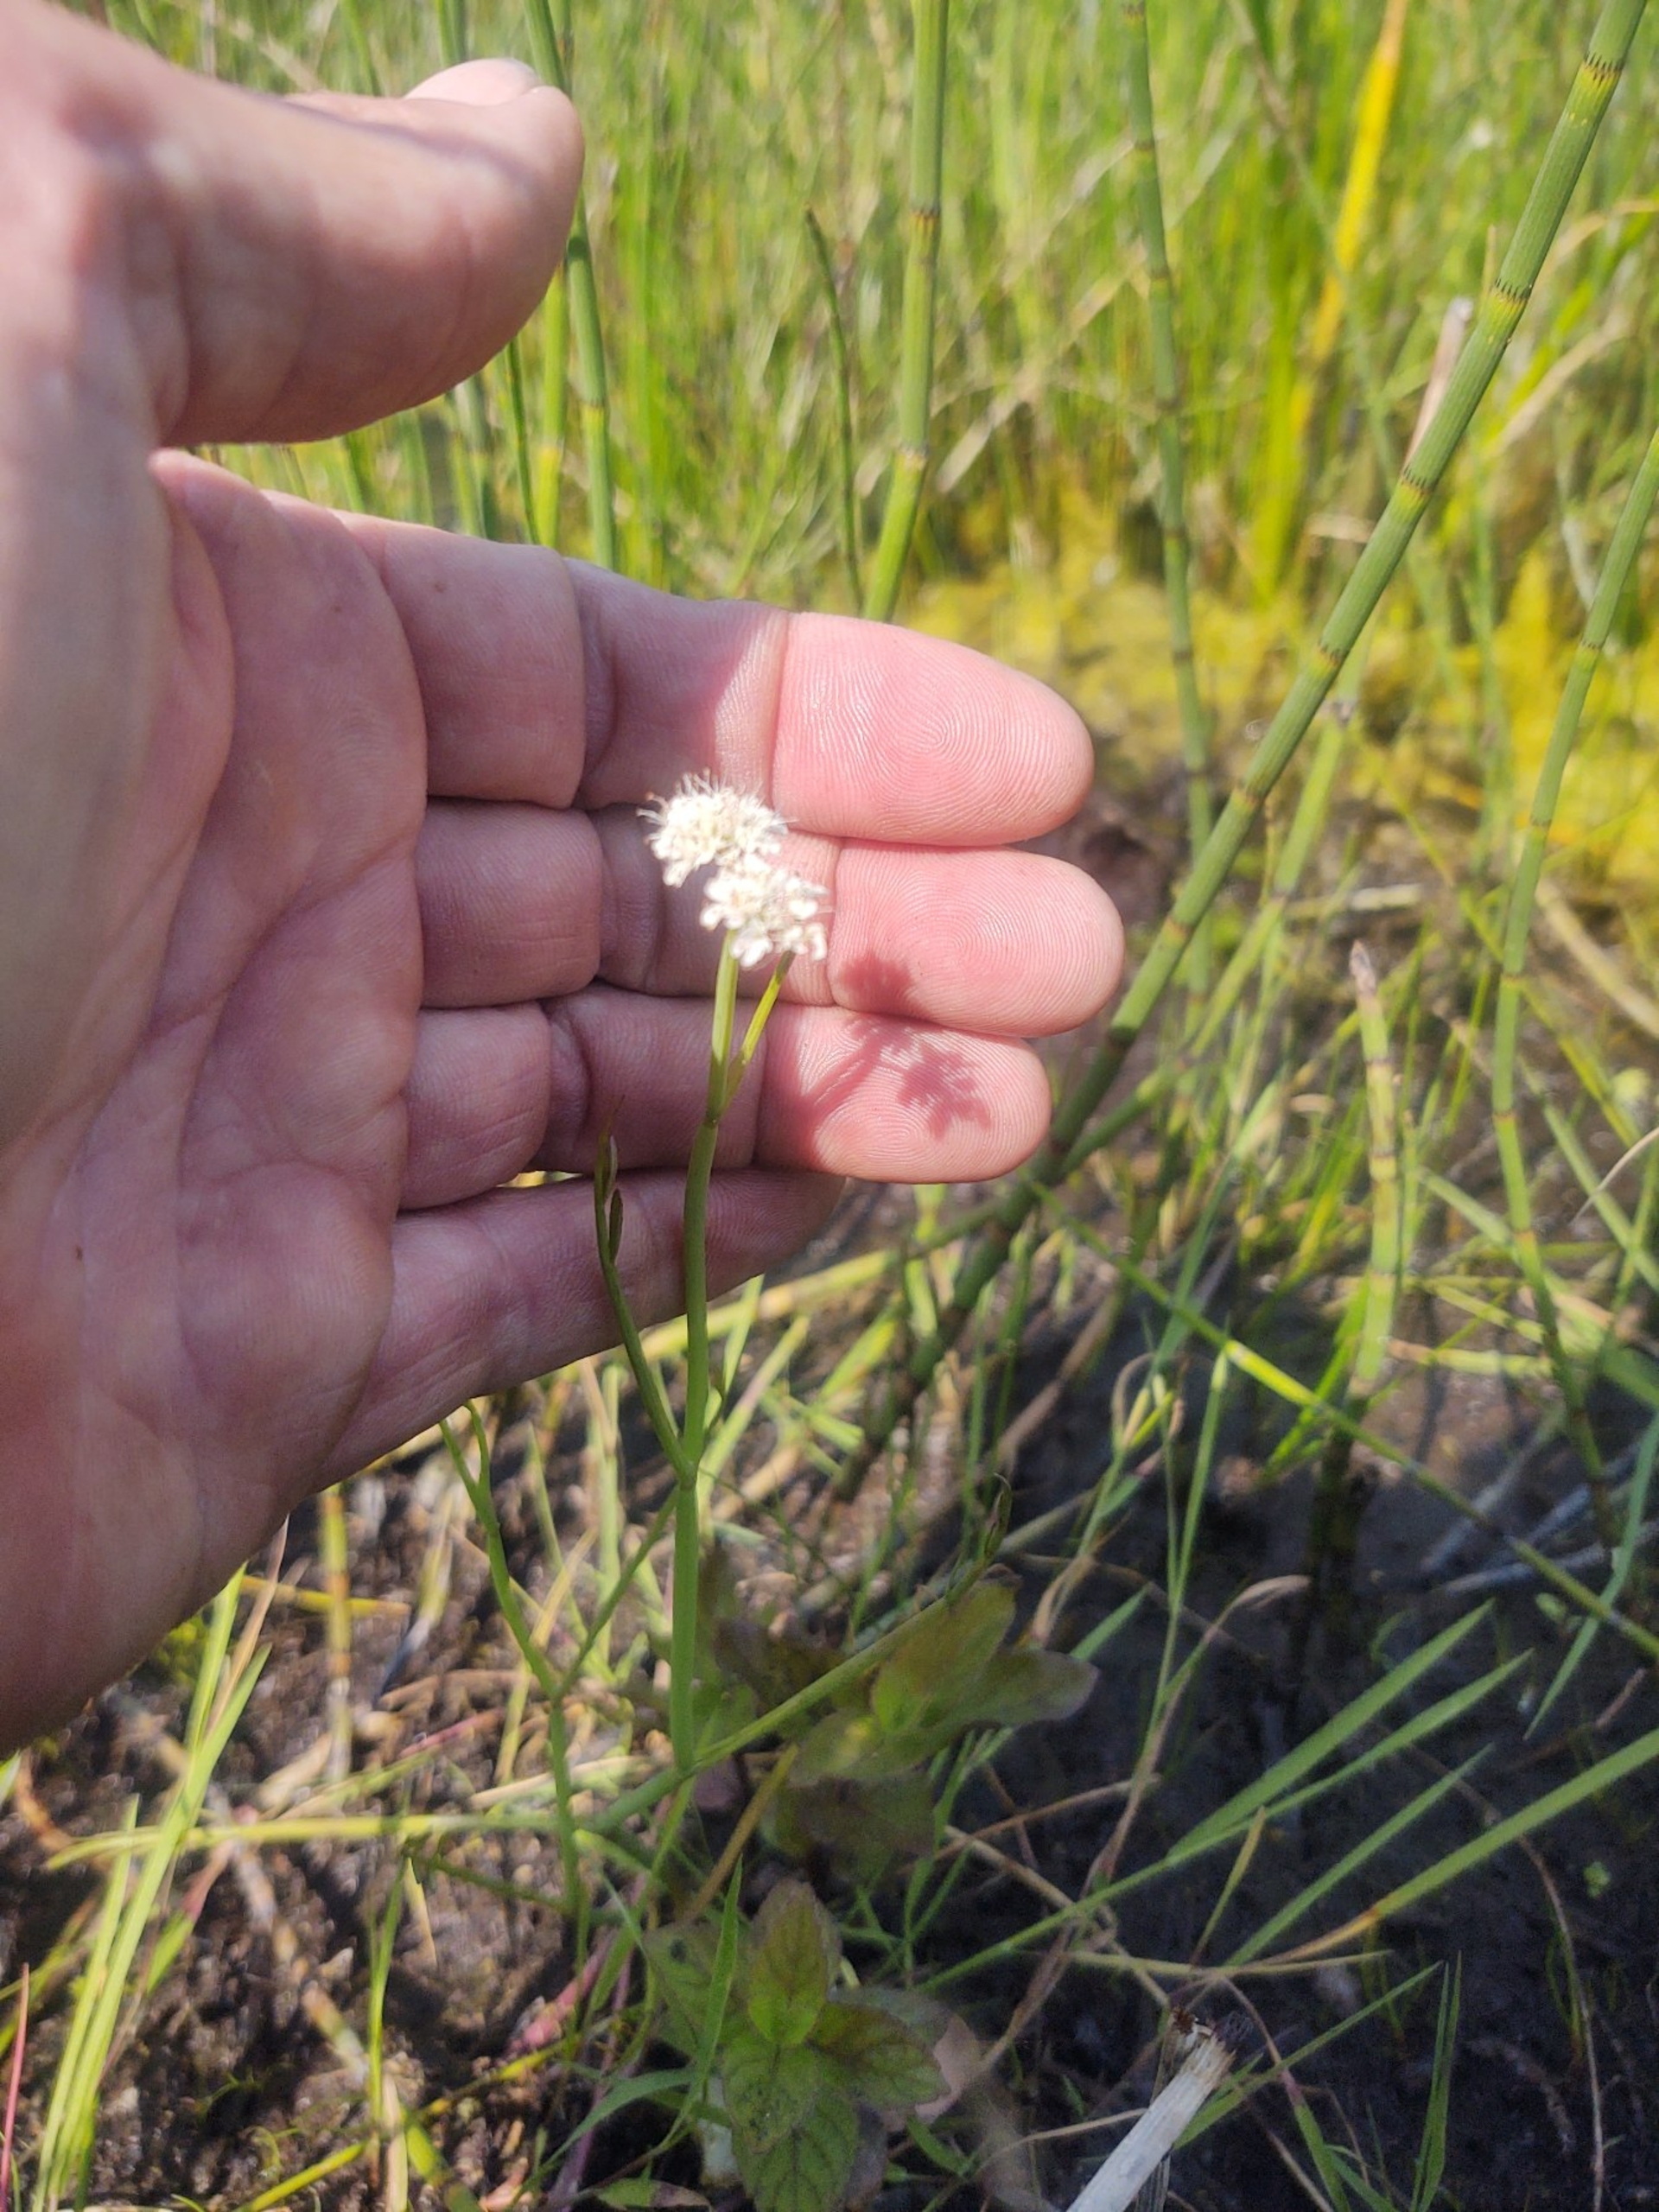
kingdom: Plantae
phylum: Tracheophyta
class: Magnoliopsida
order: Apiales
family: Apiaceae
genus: Oenanthe
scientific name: Oenanthe fistulosa
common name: Vand-klaseskærm
